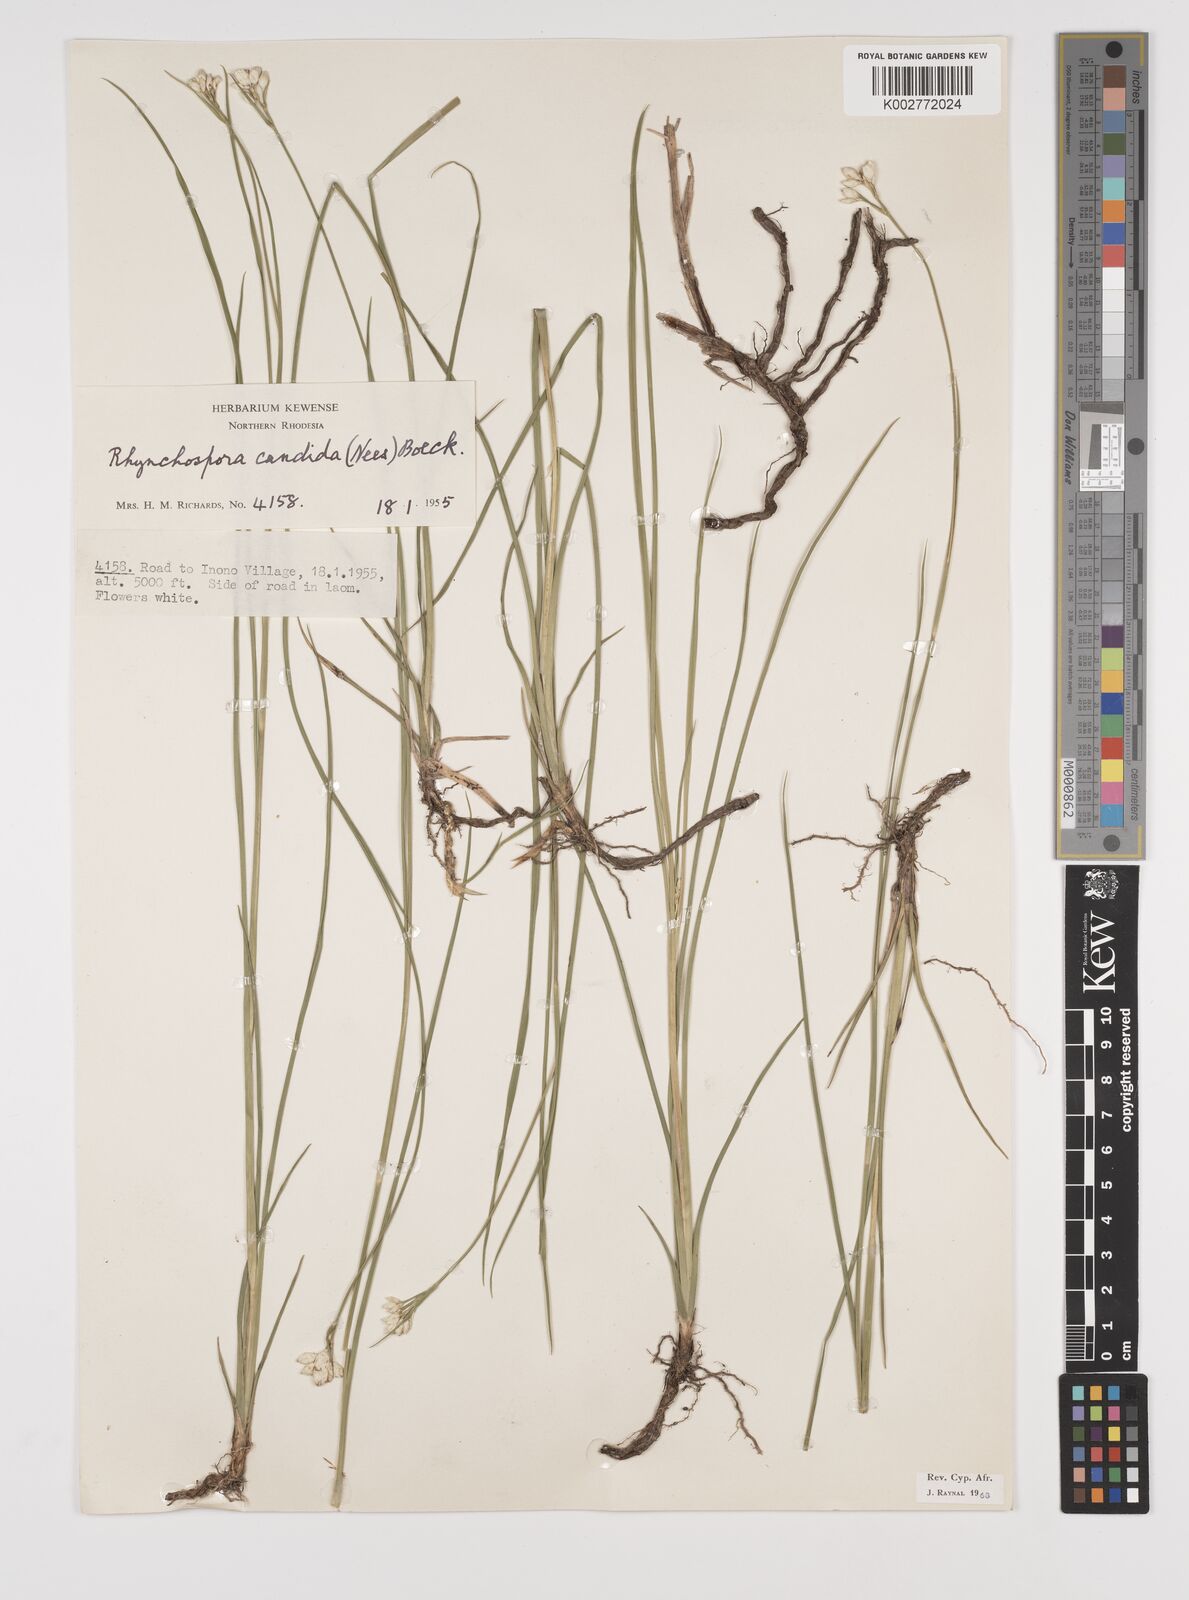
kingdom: Plantae
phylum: Tracheophyta
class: Liliopsida
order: Poales
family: Cyperaceae
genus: Rhynchospora
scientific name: Rhynchospora candida
